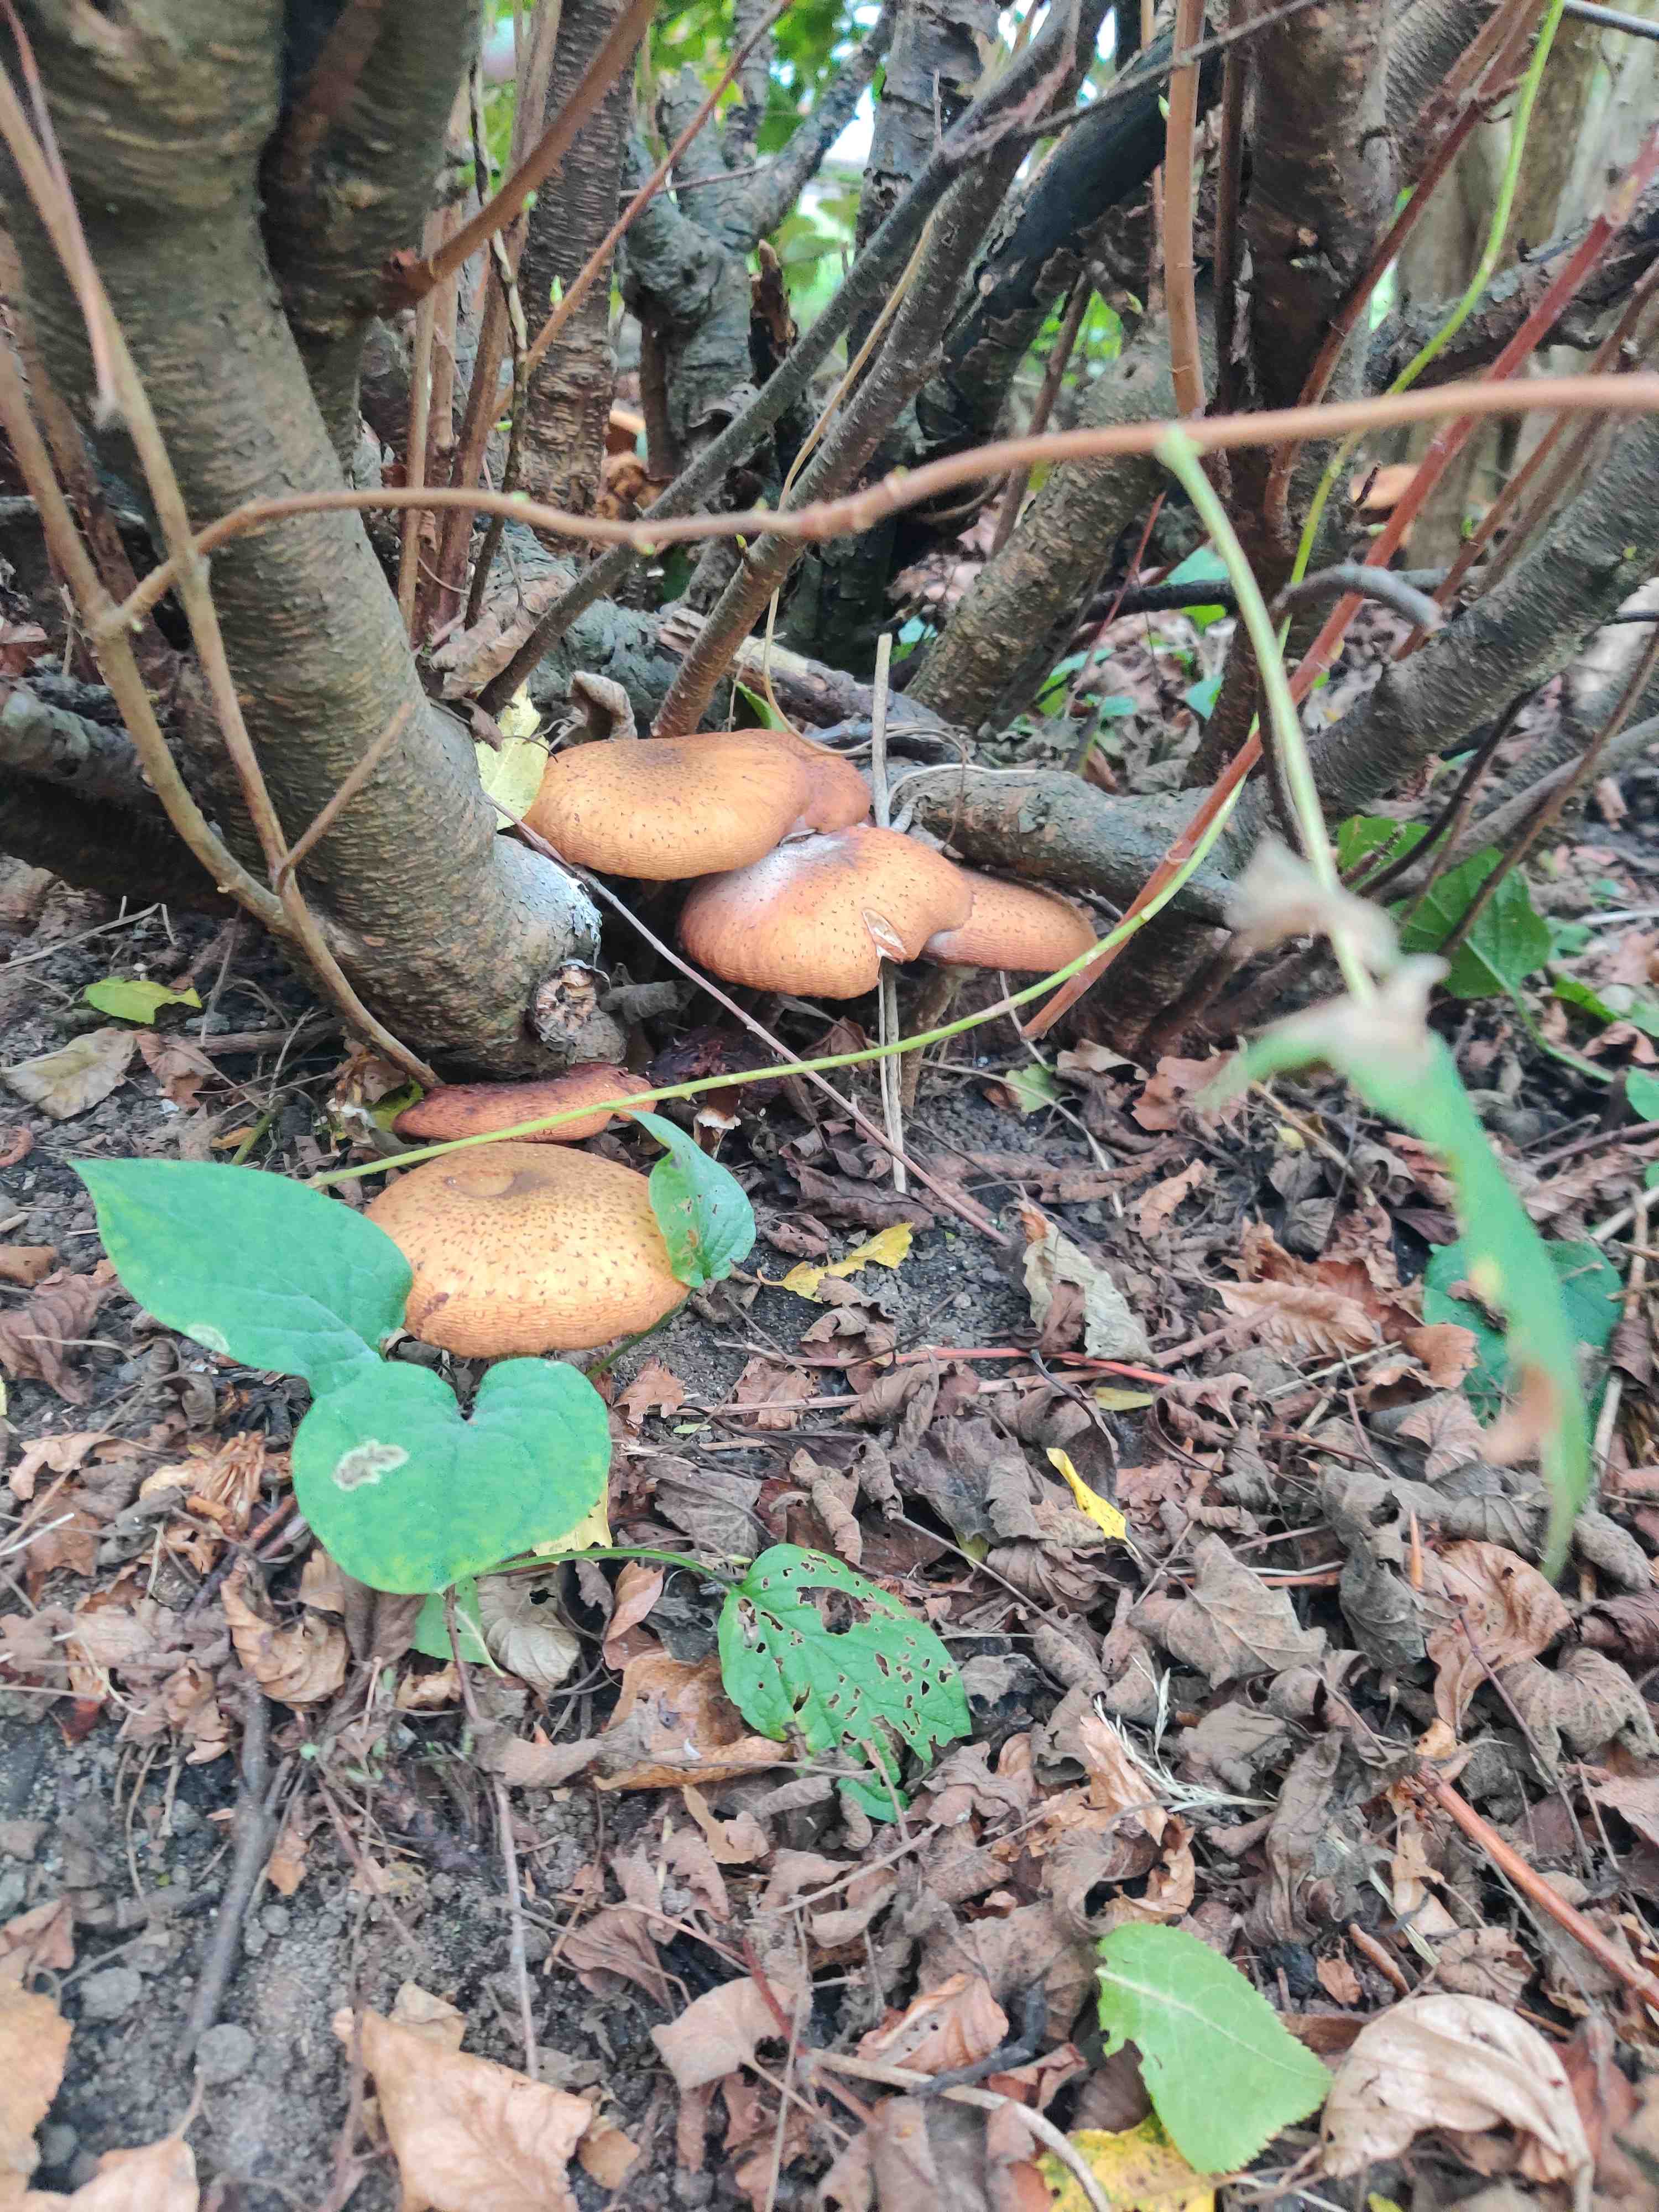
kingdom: Fungi
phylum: Basidiomycota
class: Agaricomycetes
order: Agaricales
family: Physalacriaceae
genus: Armillaria
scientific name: Armillaria lutea
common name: køllestokket honningsvamp
